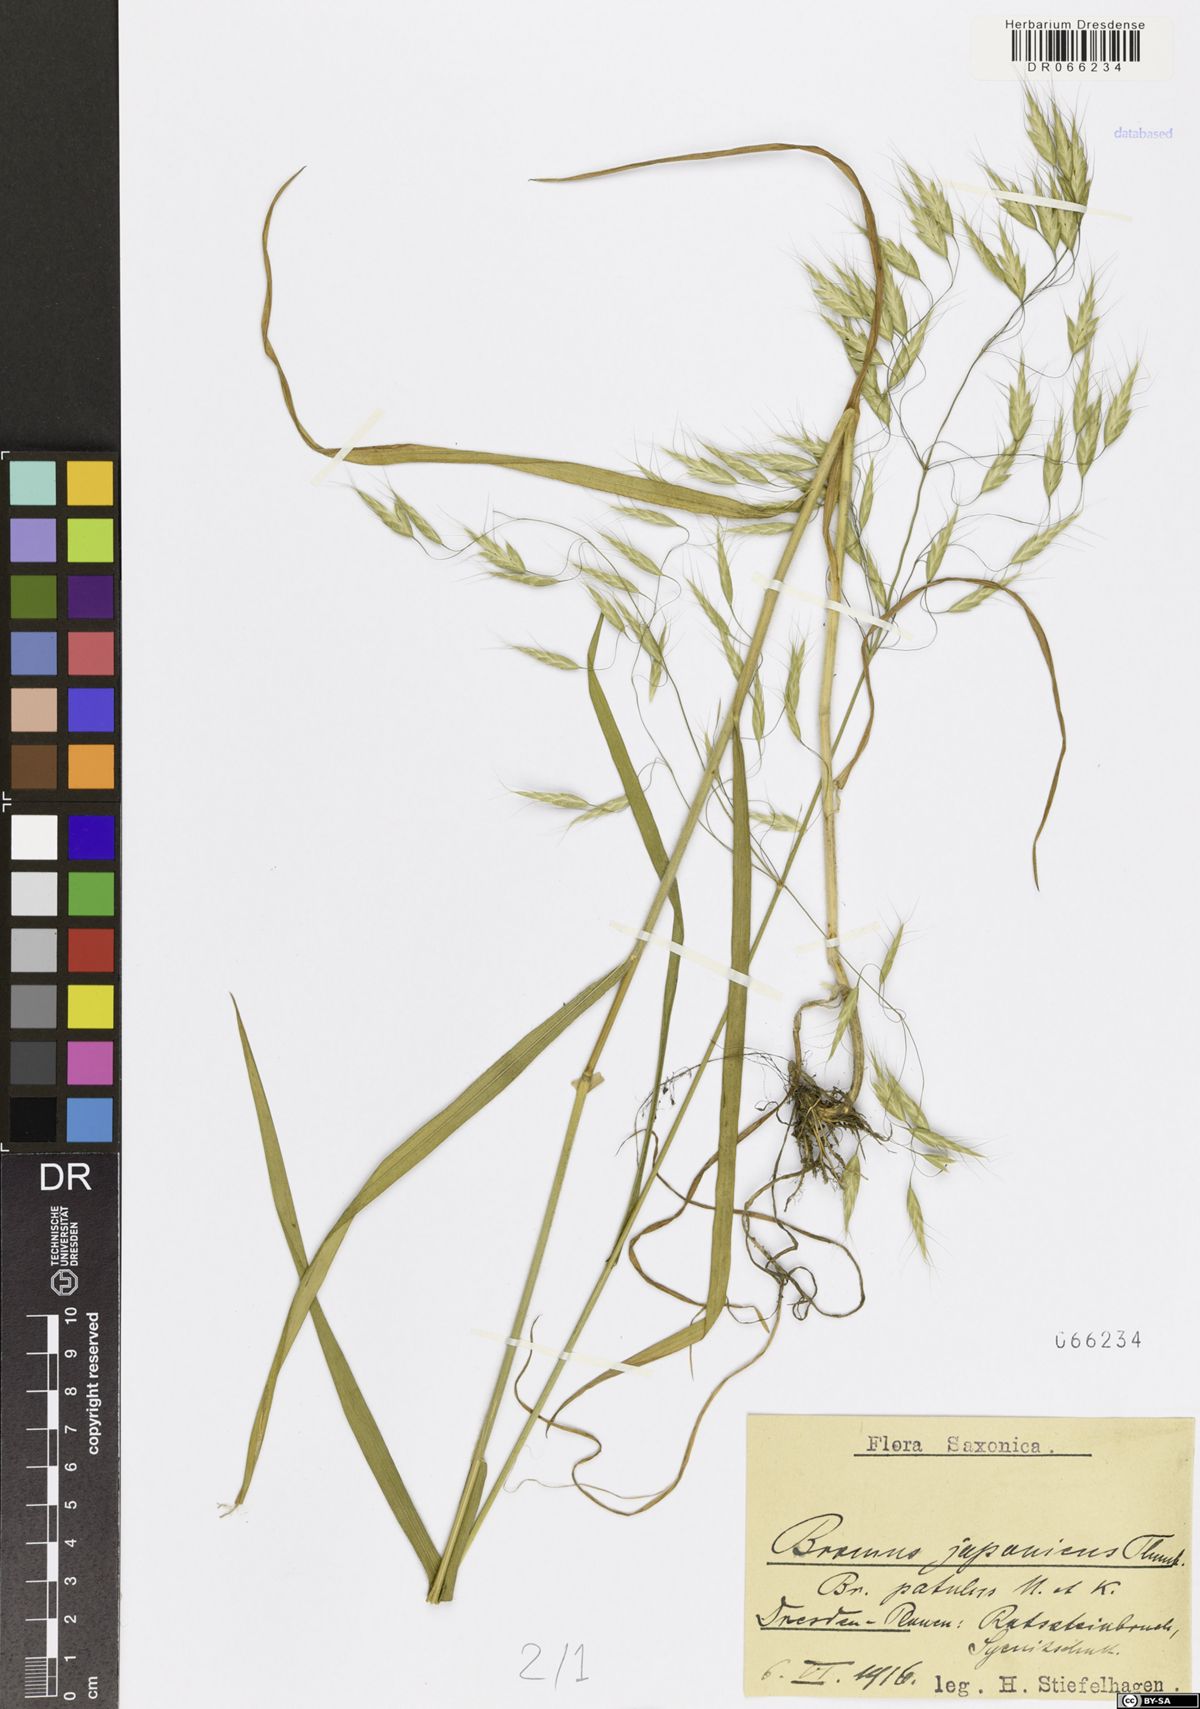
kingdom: Plantae
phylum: Tracheophyta
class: Liliopsida
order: Poales
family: Poaceae
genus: Bromus
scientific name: Bromus japonicus
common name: Japanese brome
